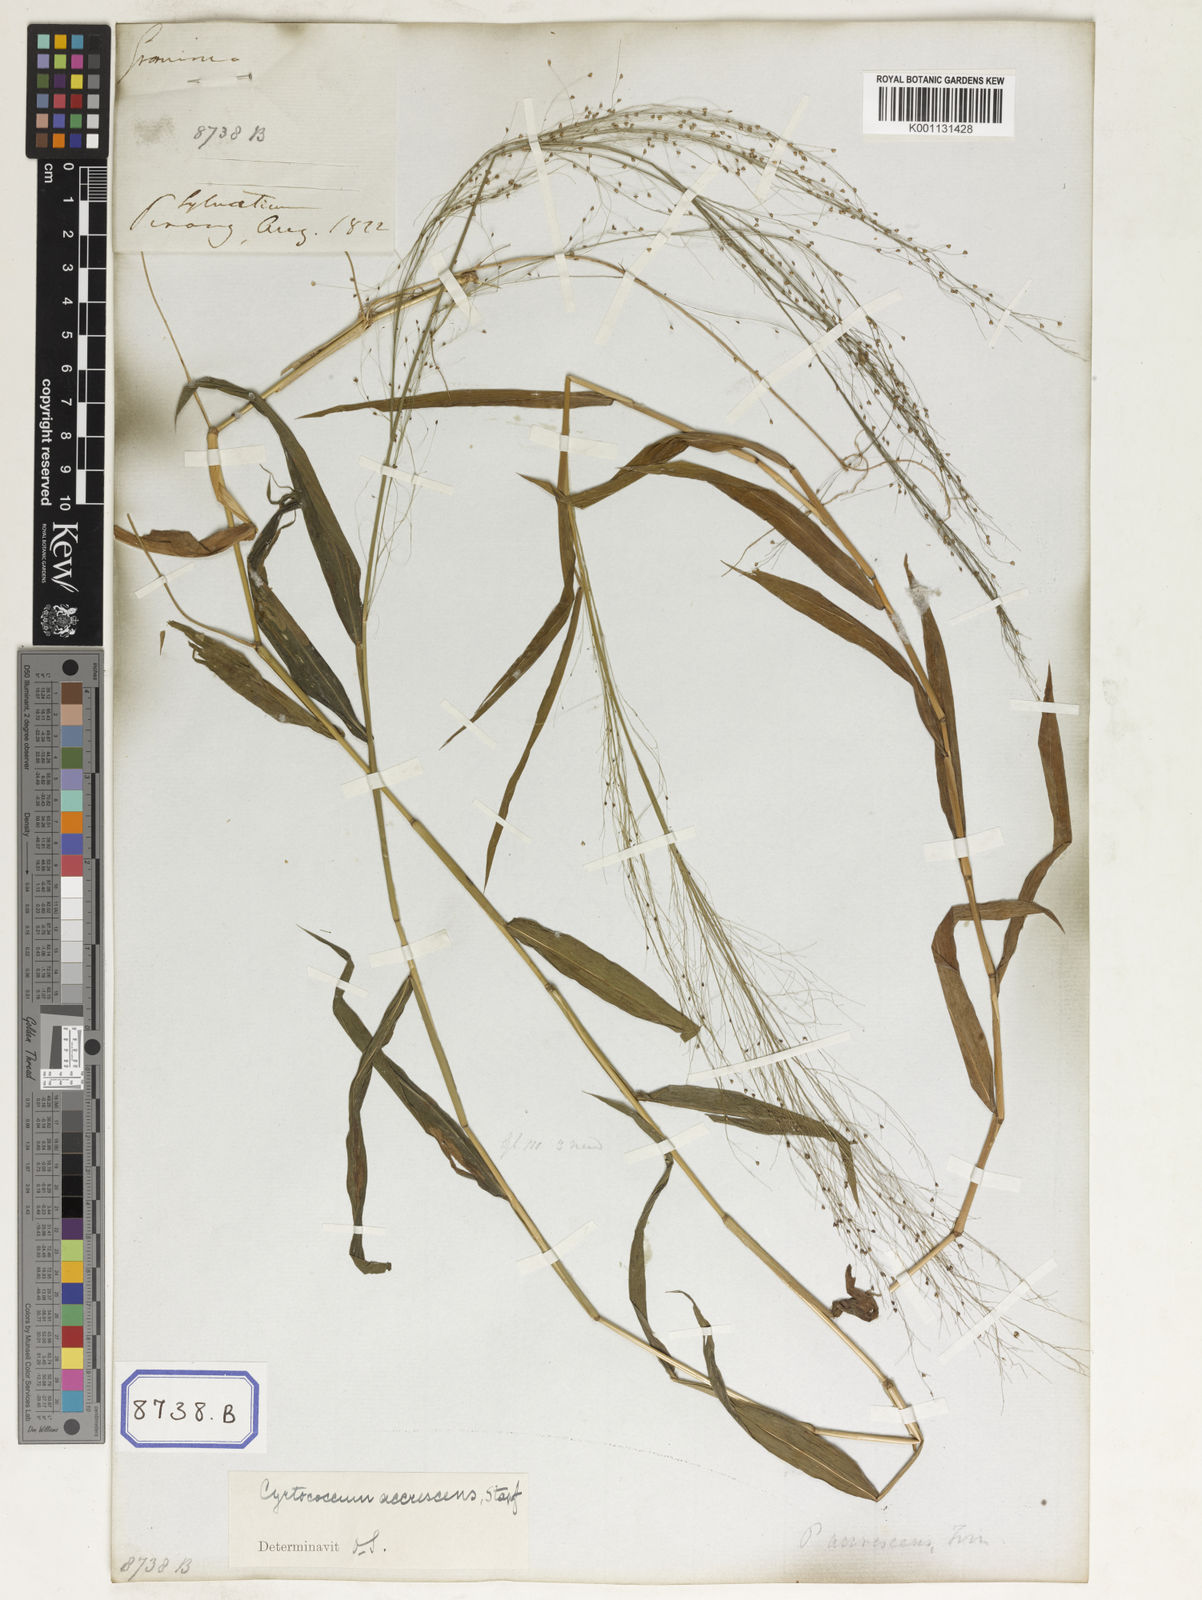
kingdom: Plantae
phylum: Tracheophyta
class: Liliopsida
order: Poales
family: Poaceae
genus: Panicum
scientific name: Panicum
